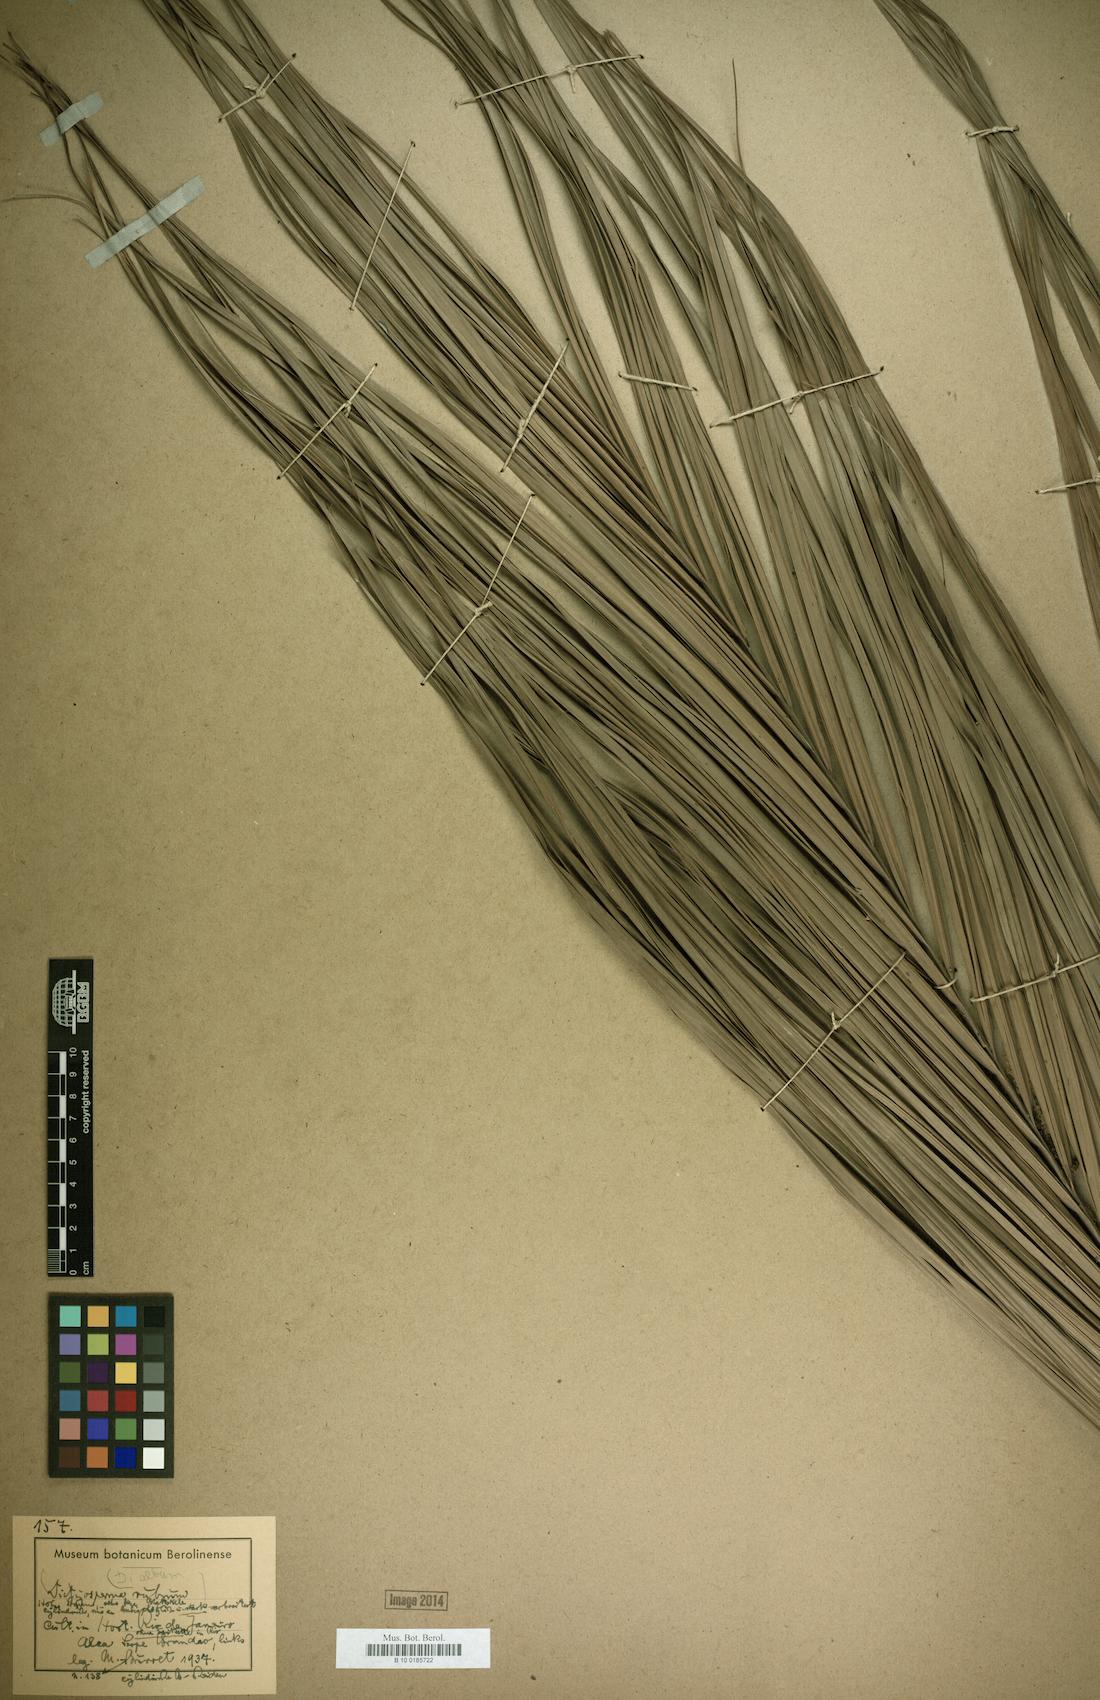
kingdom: Plantae
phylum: Tracheophyta
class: Liliopsida
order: Arecales
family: Arecaceae
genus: Dictyosperma
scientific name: Dictyosperma album
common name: Common princess palm
